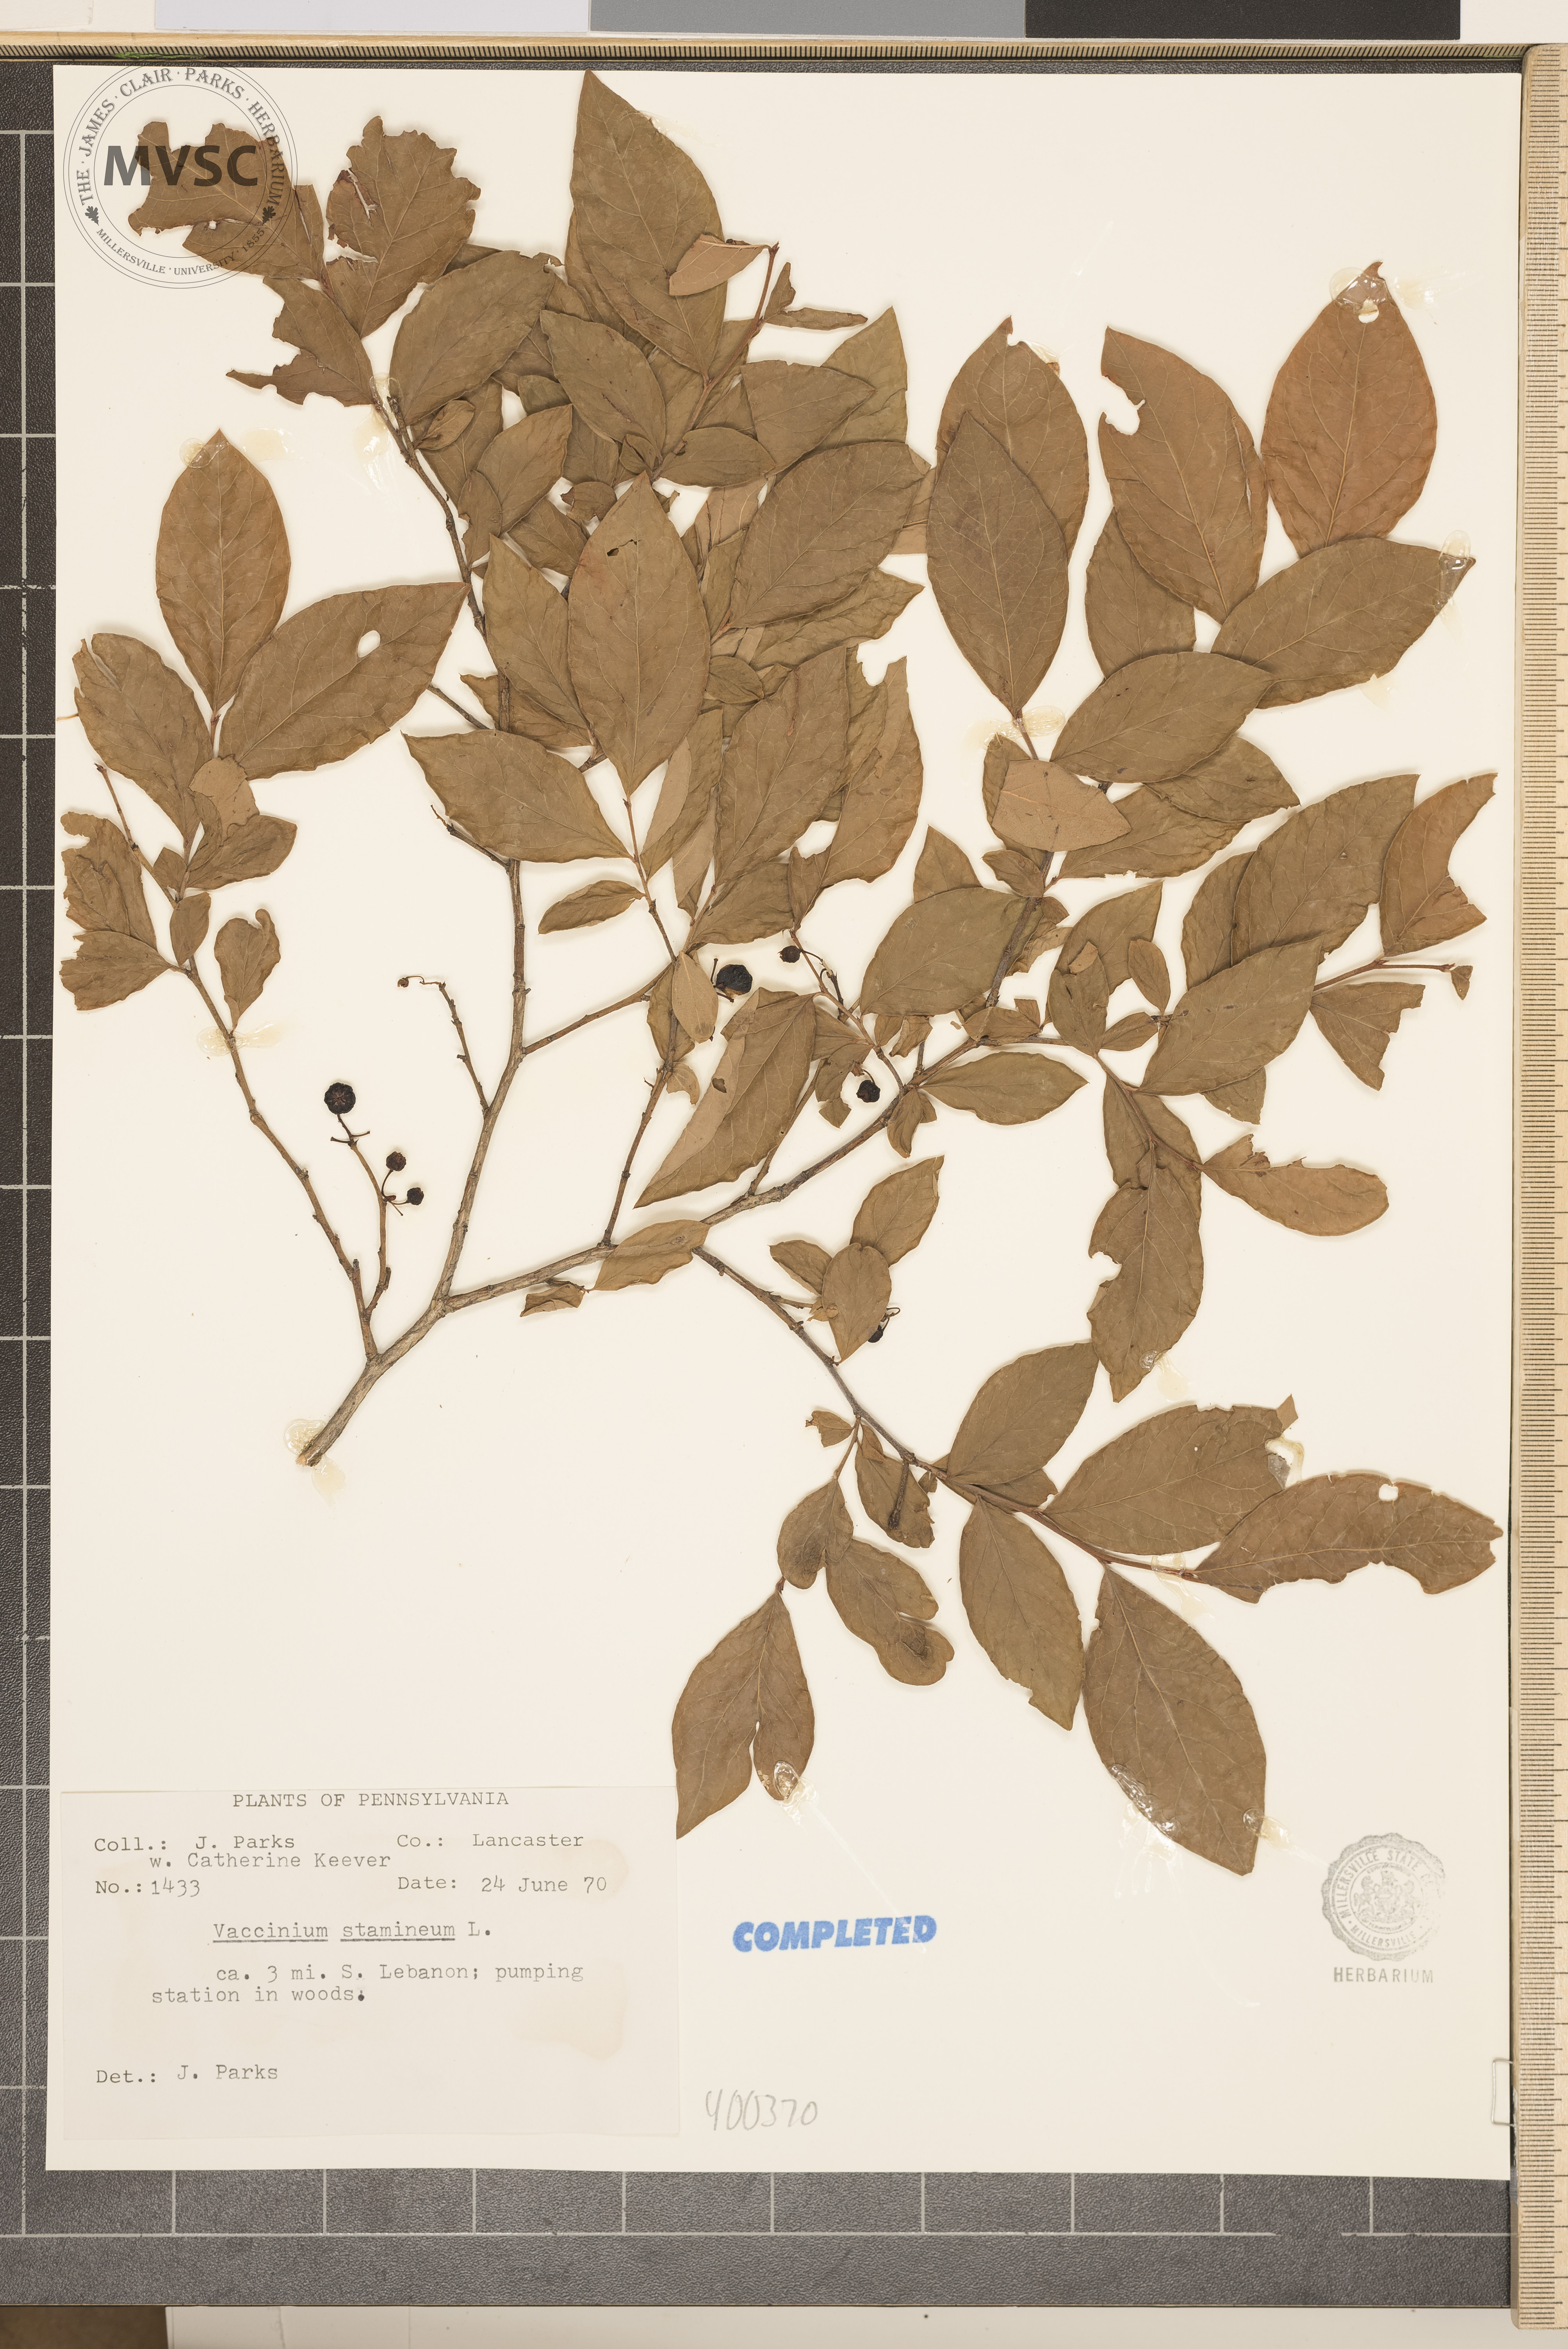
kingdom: Plantae
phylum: Tracheophyta
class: Magnoliopsida
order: Ericales
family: Ericaceae
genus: Vaccinium
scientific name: Vaccinium stamineum
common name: deerberry
